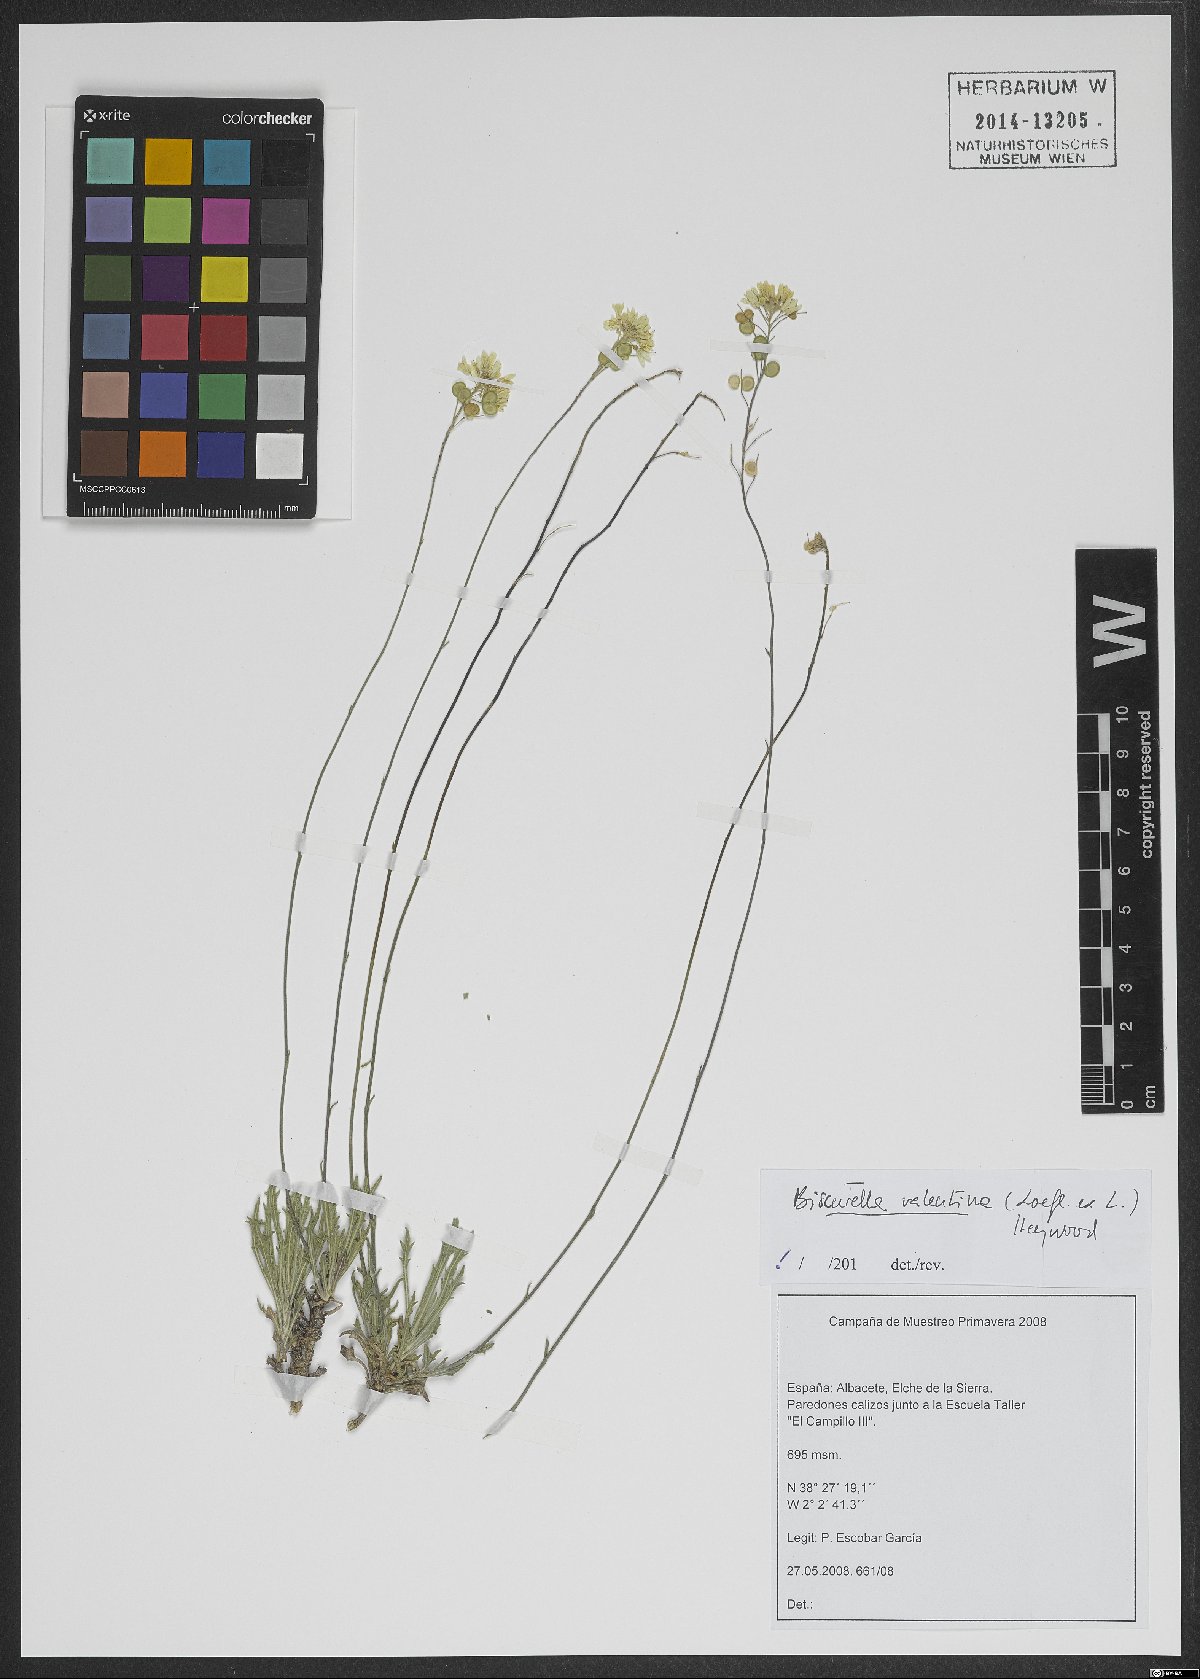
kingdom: Plantae
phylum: Tracheophyta
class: Magnoliopsida
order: Brassicales
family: Brassicaceae
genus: Biscutella
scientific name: Biscutella valentina
